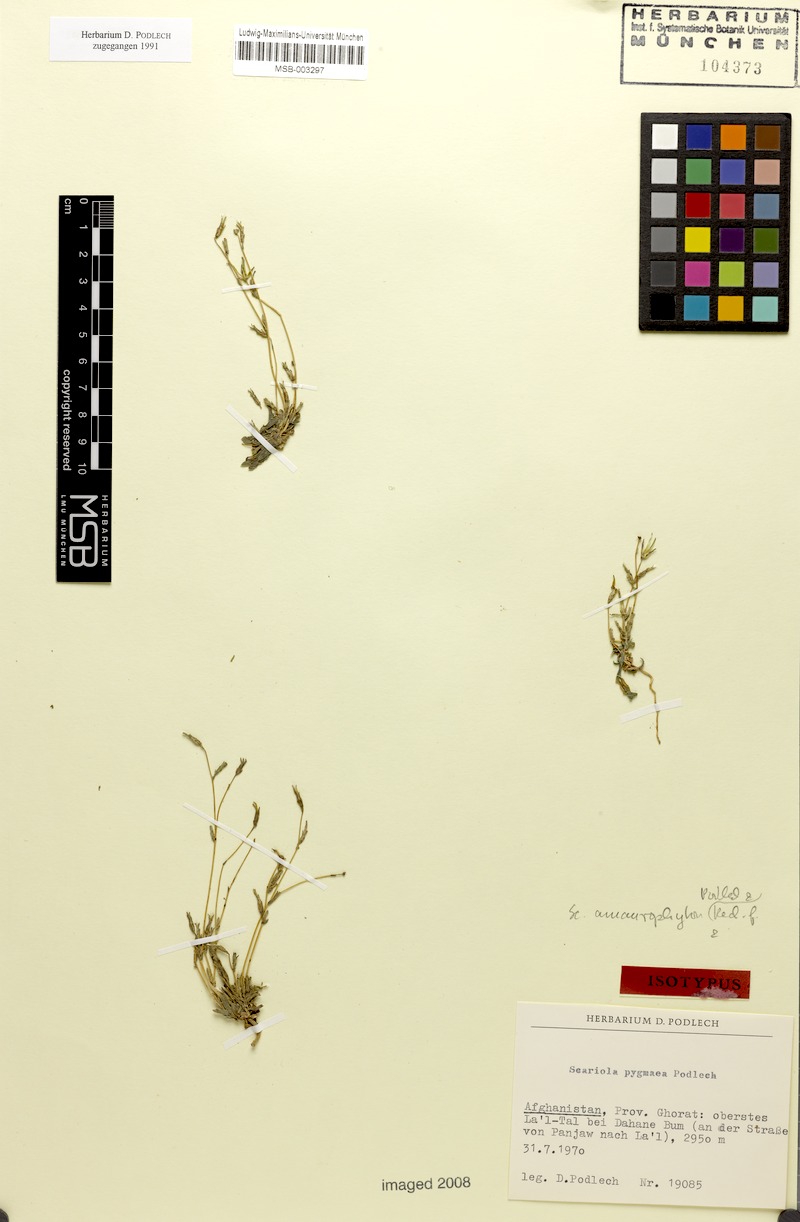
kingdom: Plantae
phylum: Tracheophyta
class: Magnoliopsida
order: Asterales
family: Asteraceae
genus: Lactuca
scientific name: Lactuca serriola
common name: Prickly lettuce
